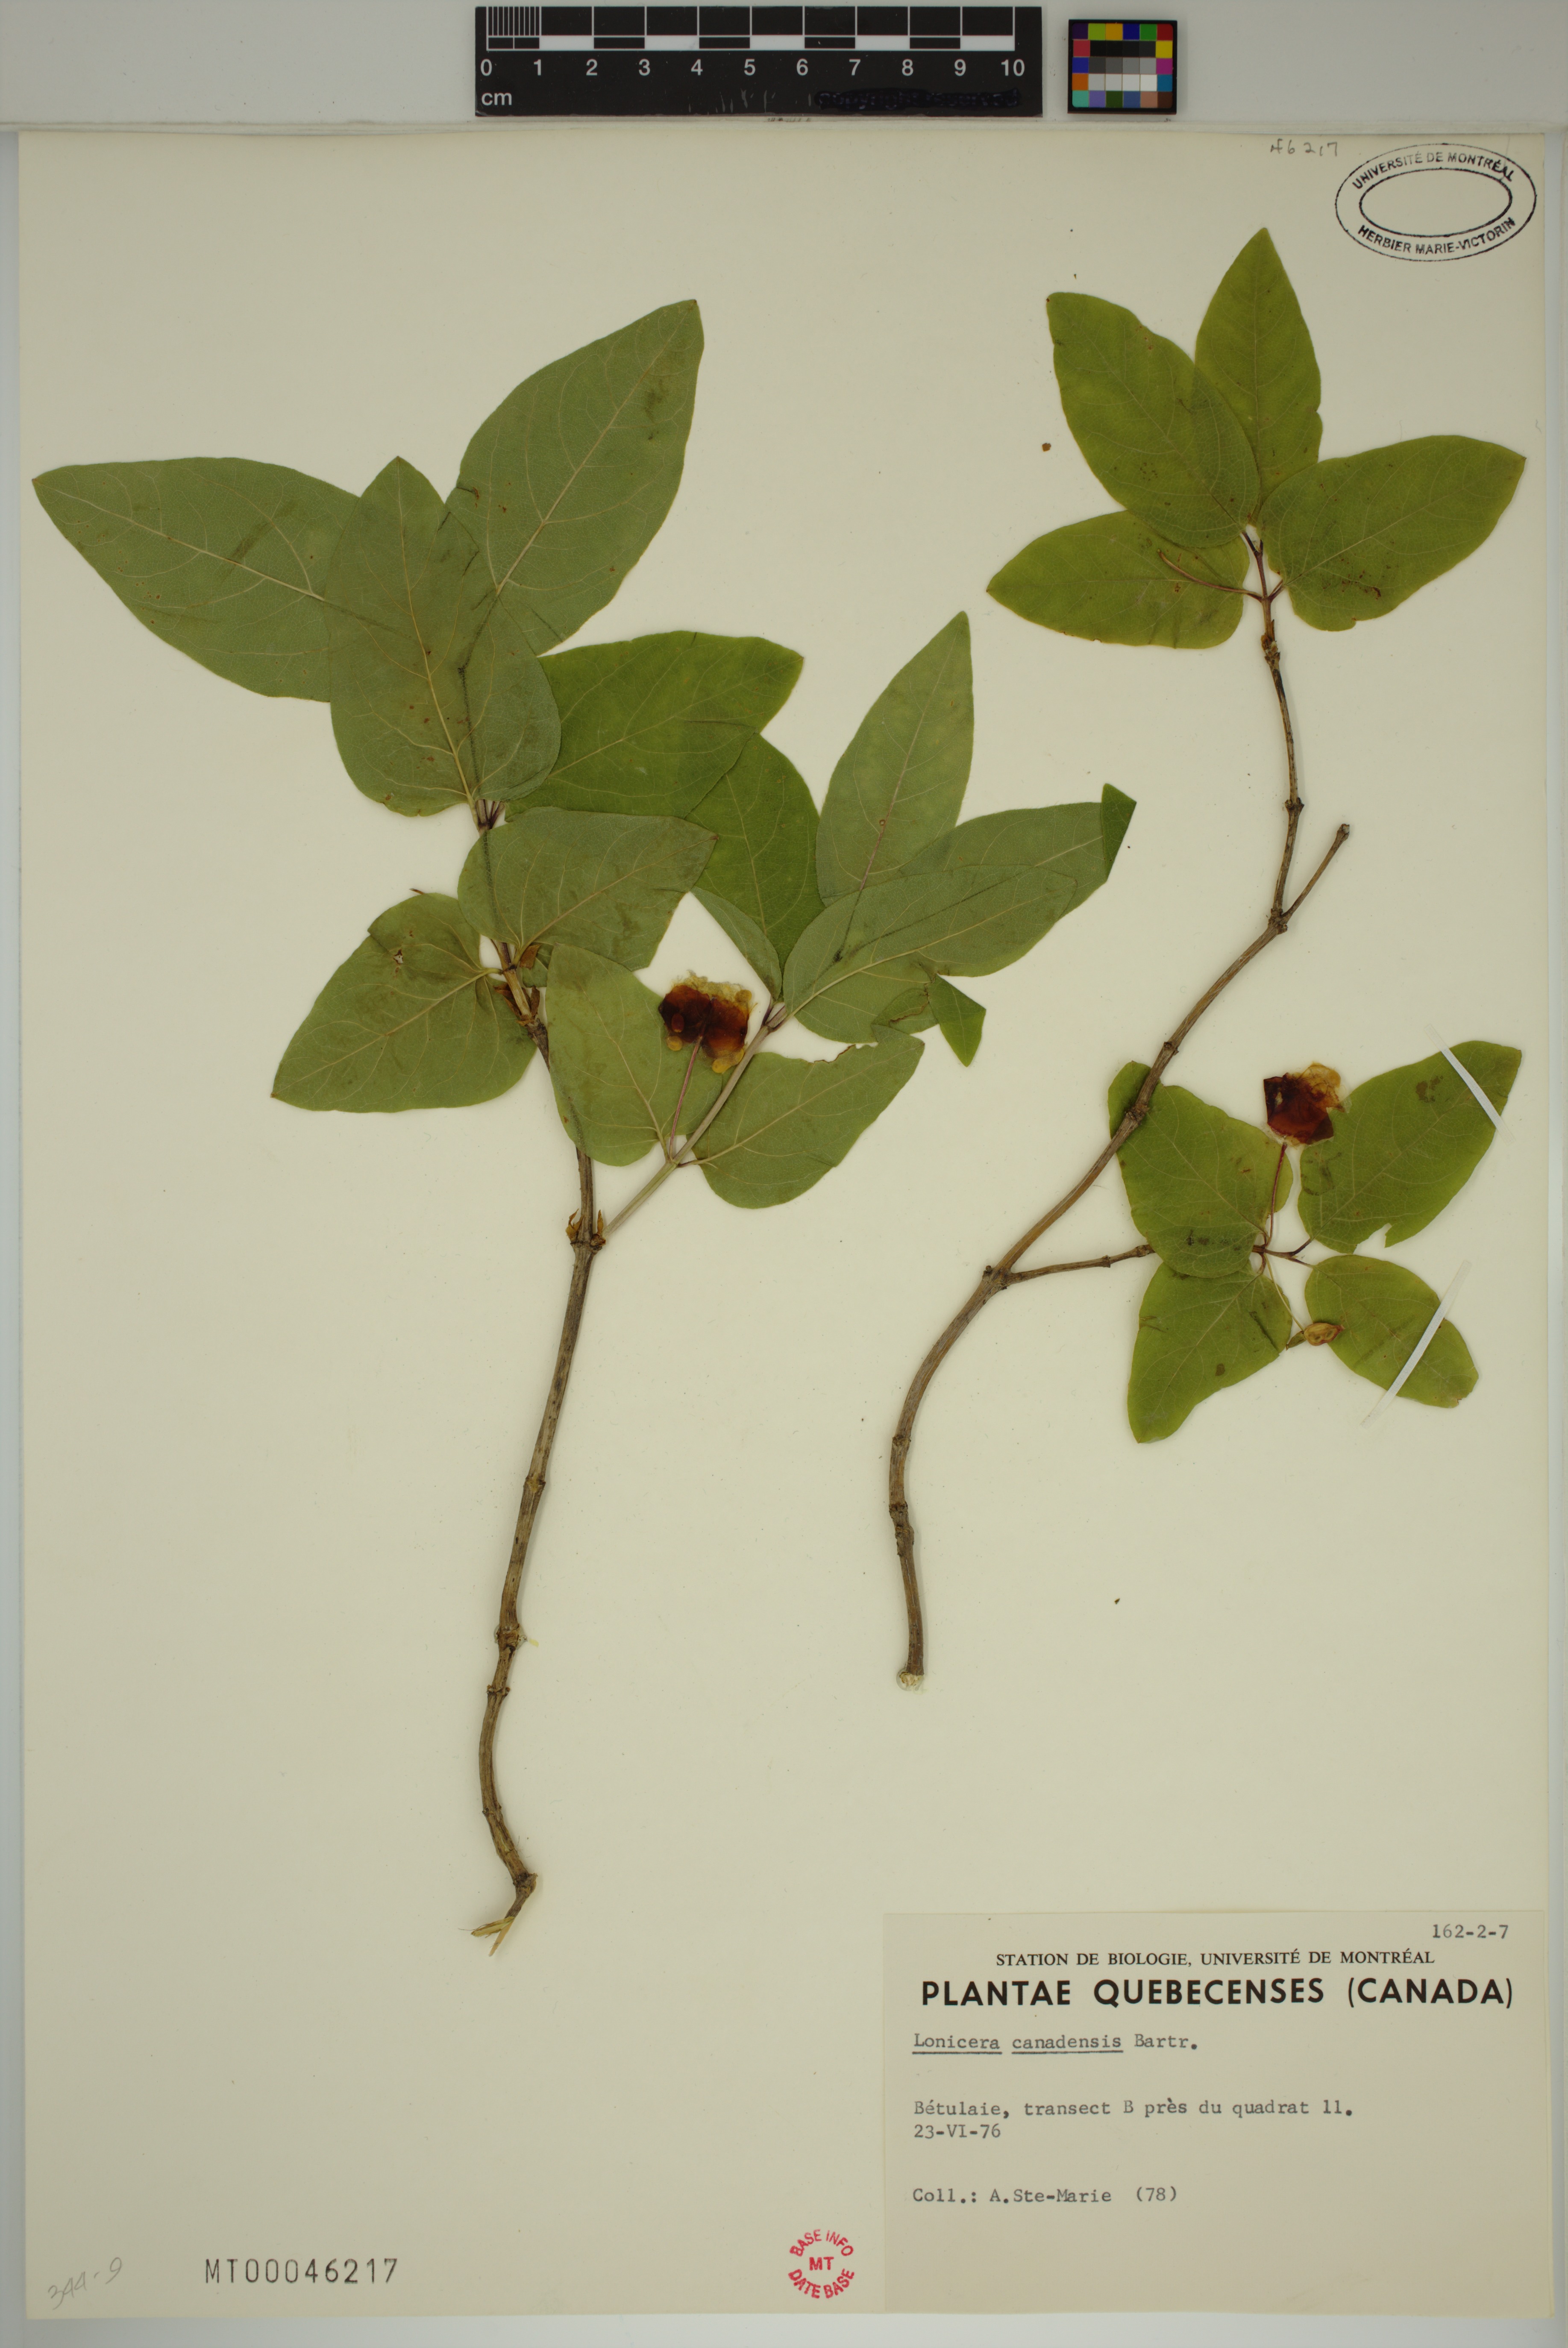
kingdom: Plantae
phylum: Tracheophyta
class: Magnoliopsida
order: Dipsacales
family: Caprifoliaceae
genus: Lonicera
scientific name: Lonicera canadensis
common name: American fly-honeysuckle
